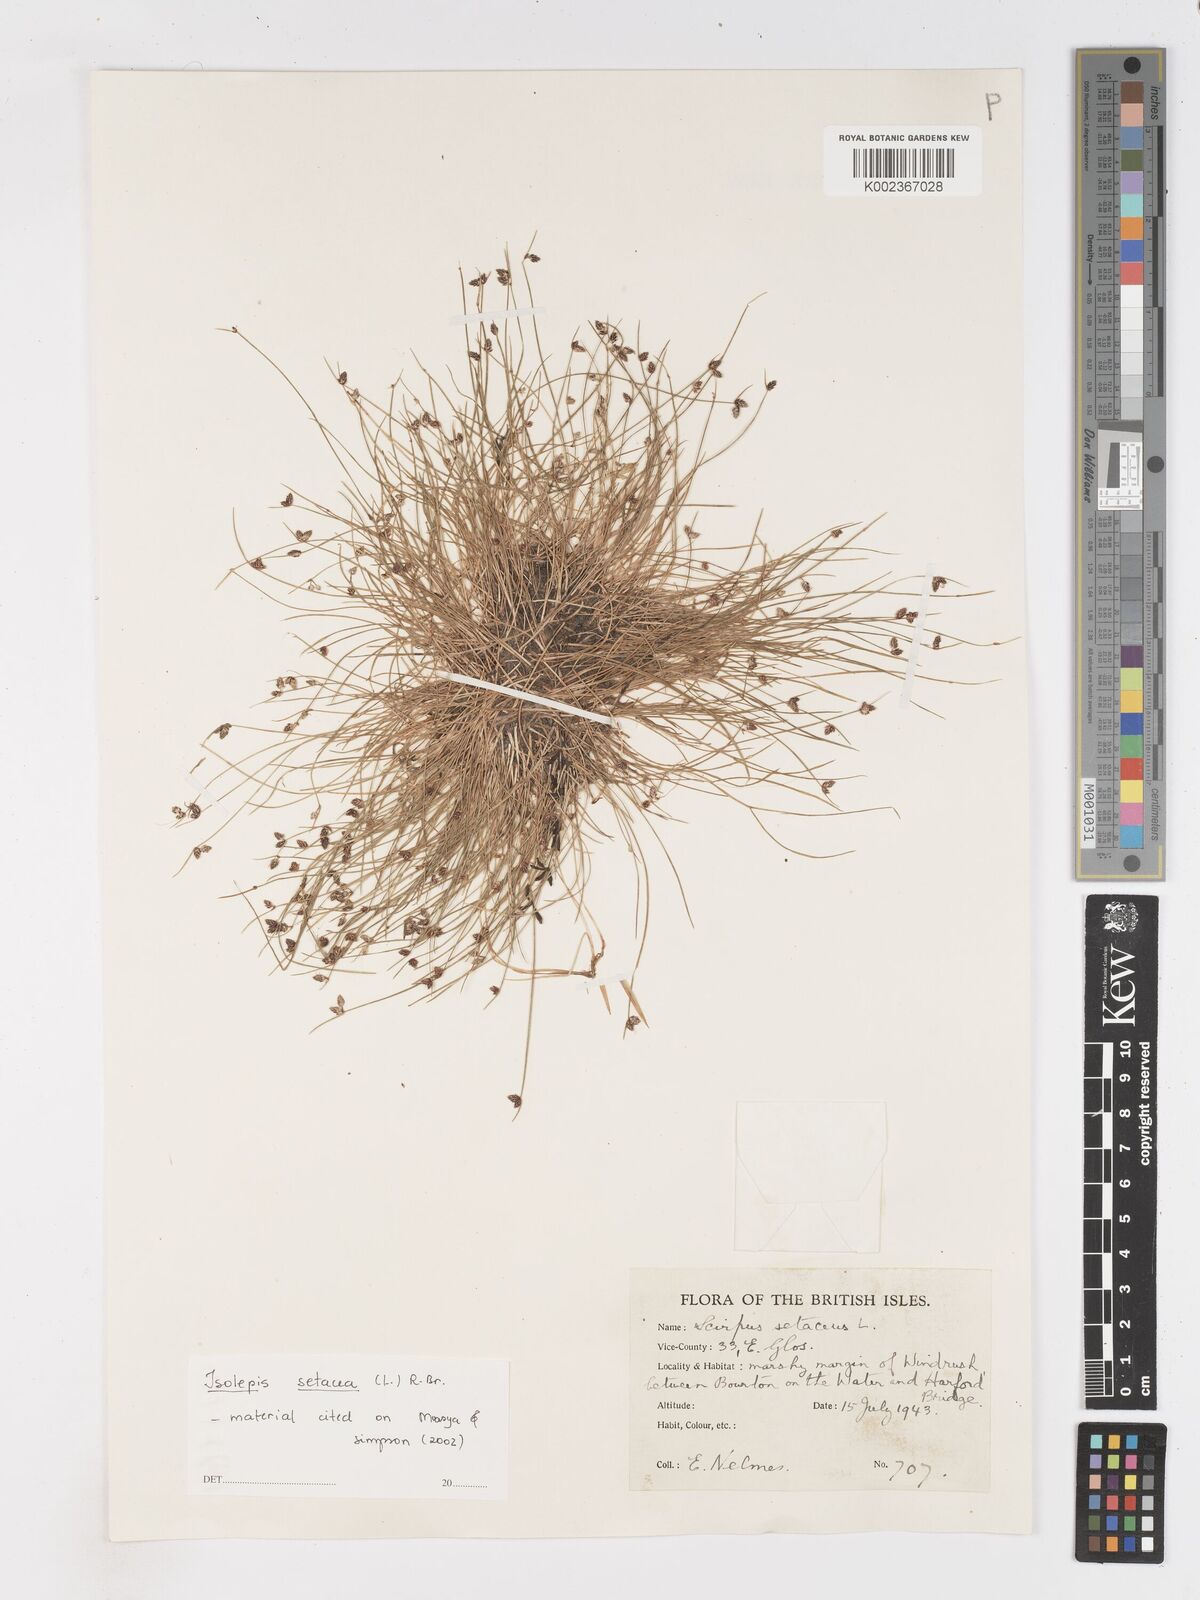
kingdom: Plantae
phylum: Tracheophyta
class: Liliopsida
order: Poales
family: Cyperaceae
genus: Isolepis
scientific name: Isolepis setacea
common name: Bristle club-rush
